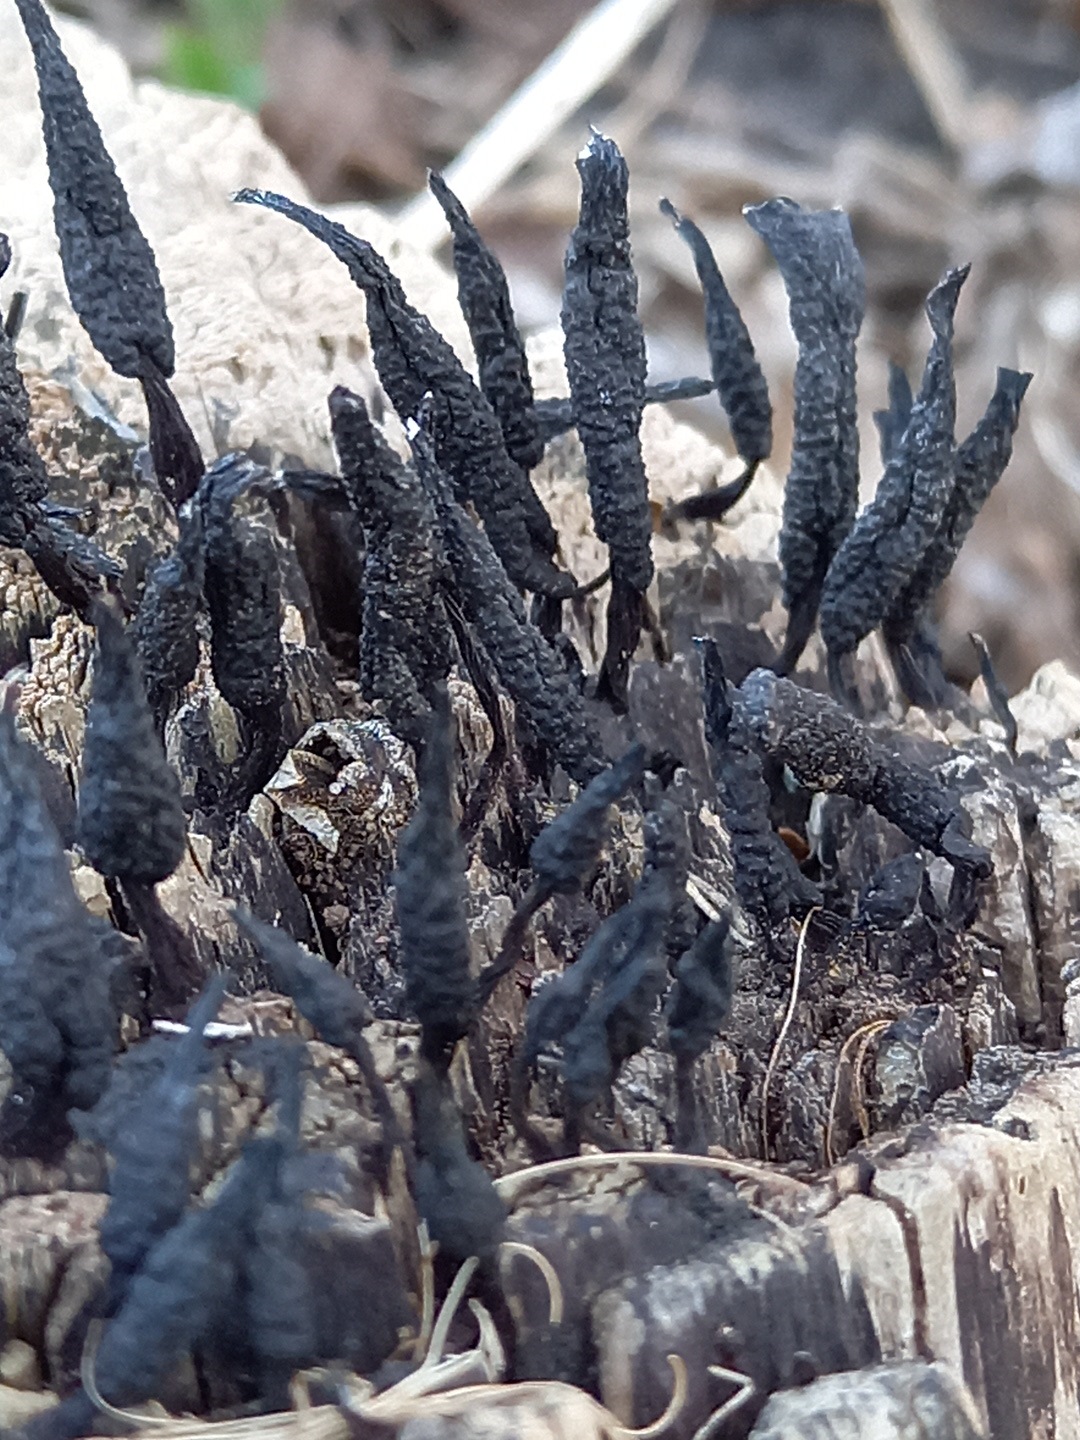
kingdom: Fungi
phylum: Ascomycota
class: Sordariomycetes
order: Xylariales
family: Xylariaceae
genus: Xylaria
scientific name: Xylaria hypoxylon
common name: grenet stødsvamp
